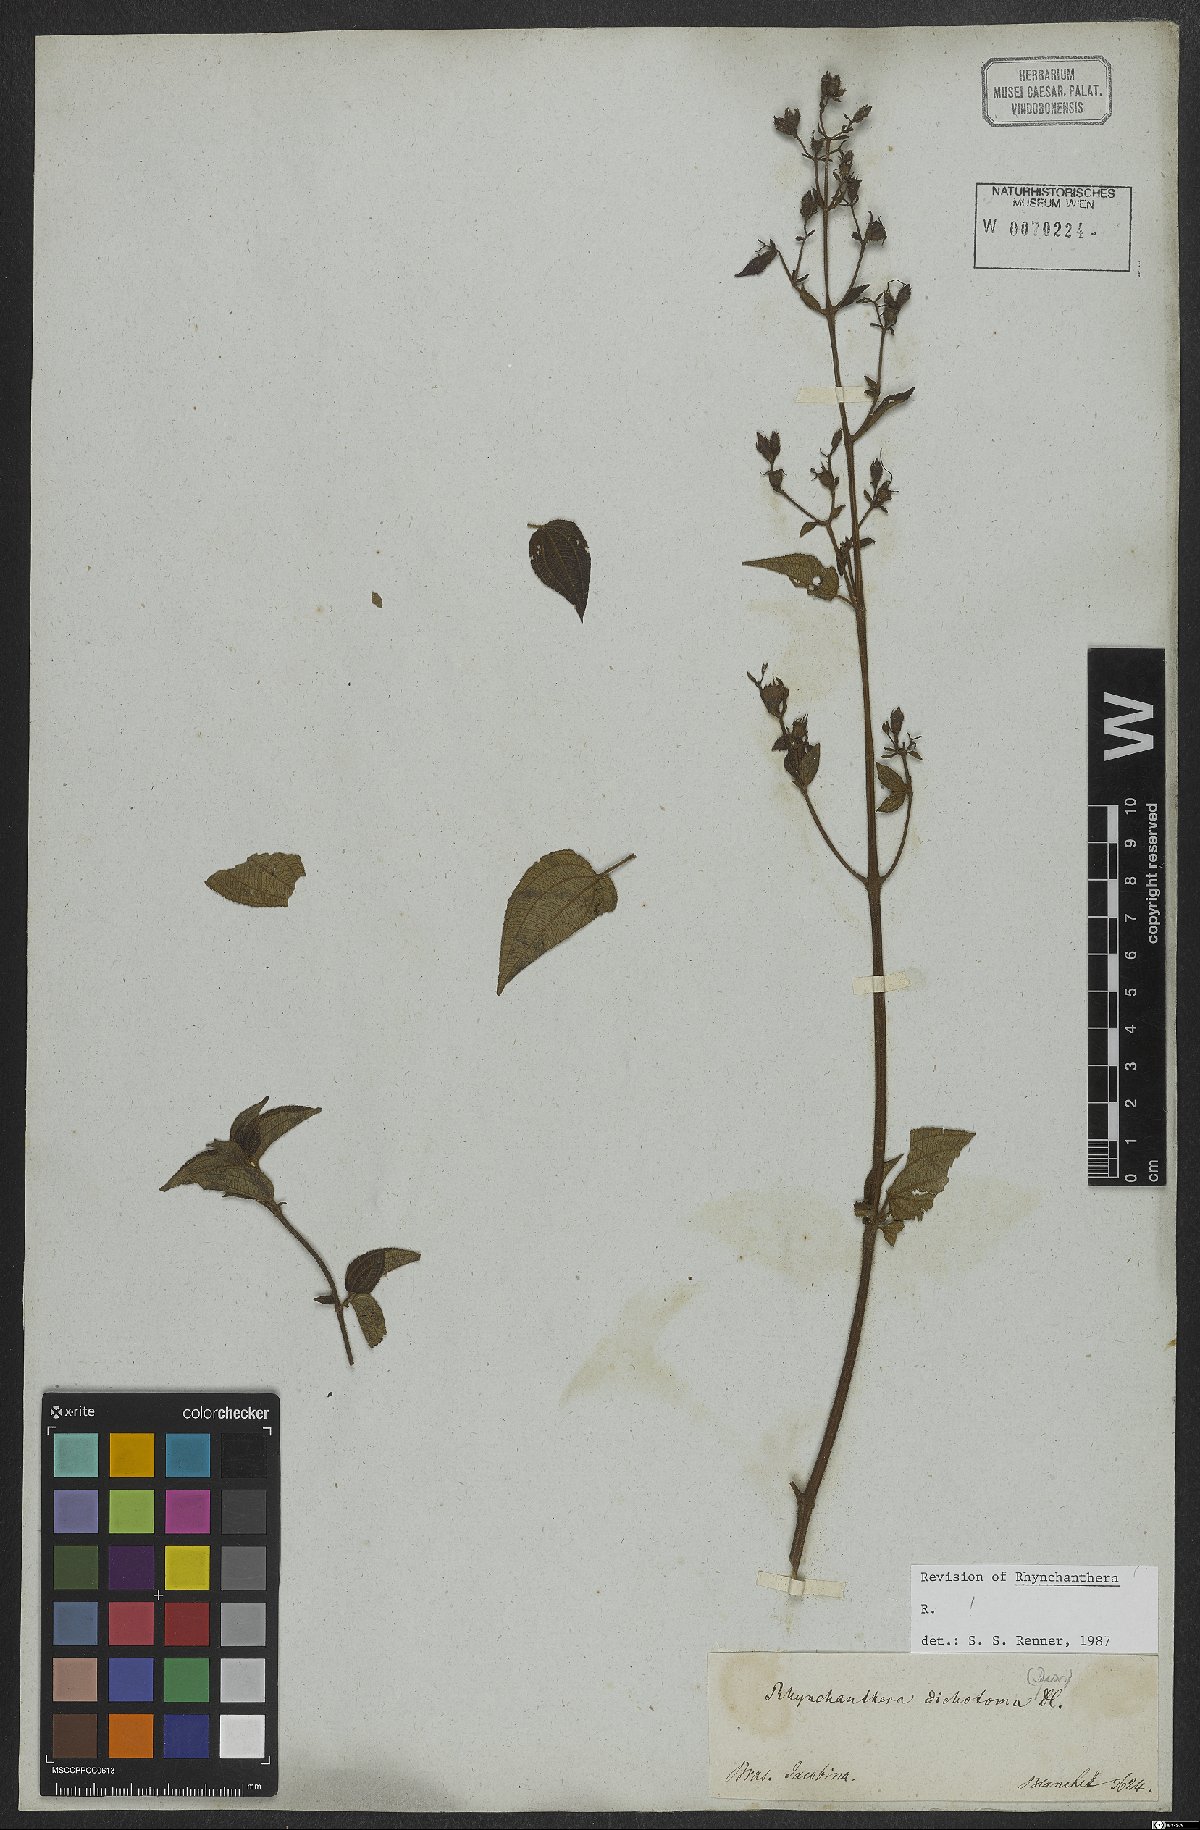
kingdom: Plantae
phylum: Tracheophyta
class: Magnoliopsida
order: Myrtales
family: Melastomataceae
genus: Rhynchanthera
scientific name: Rhynchanthera dichotoma
